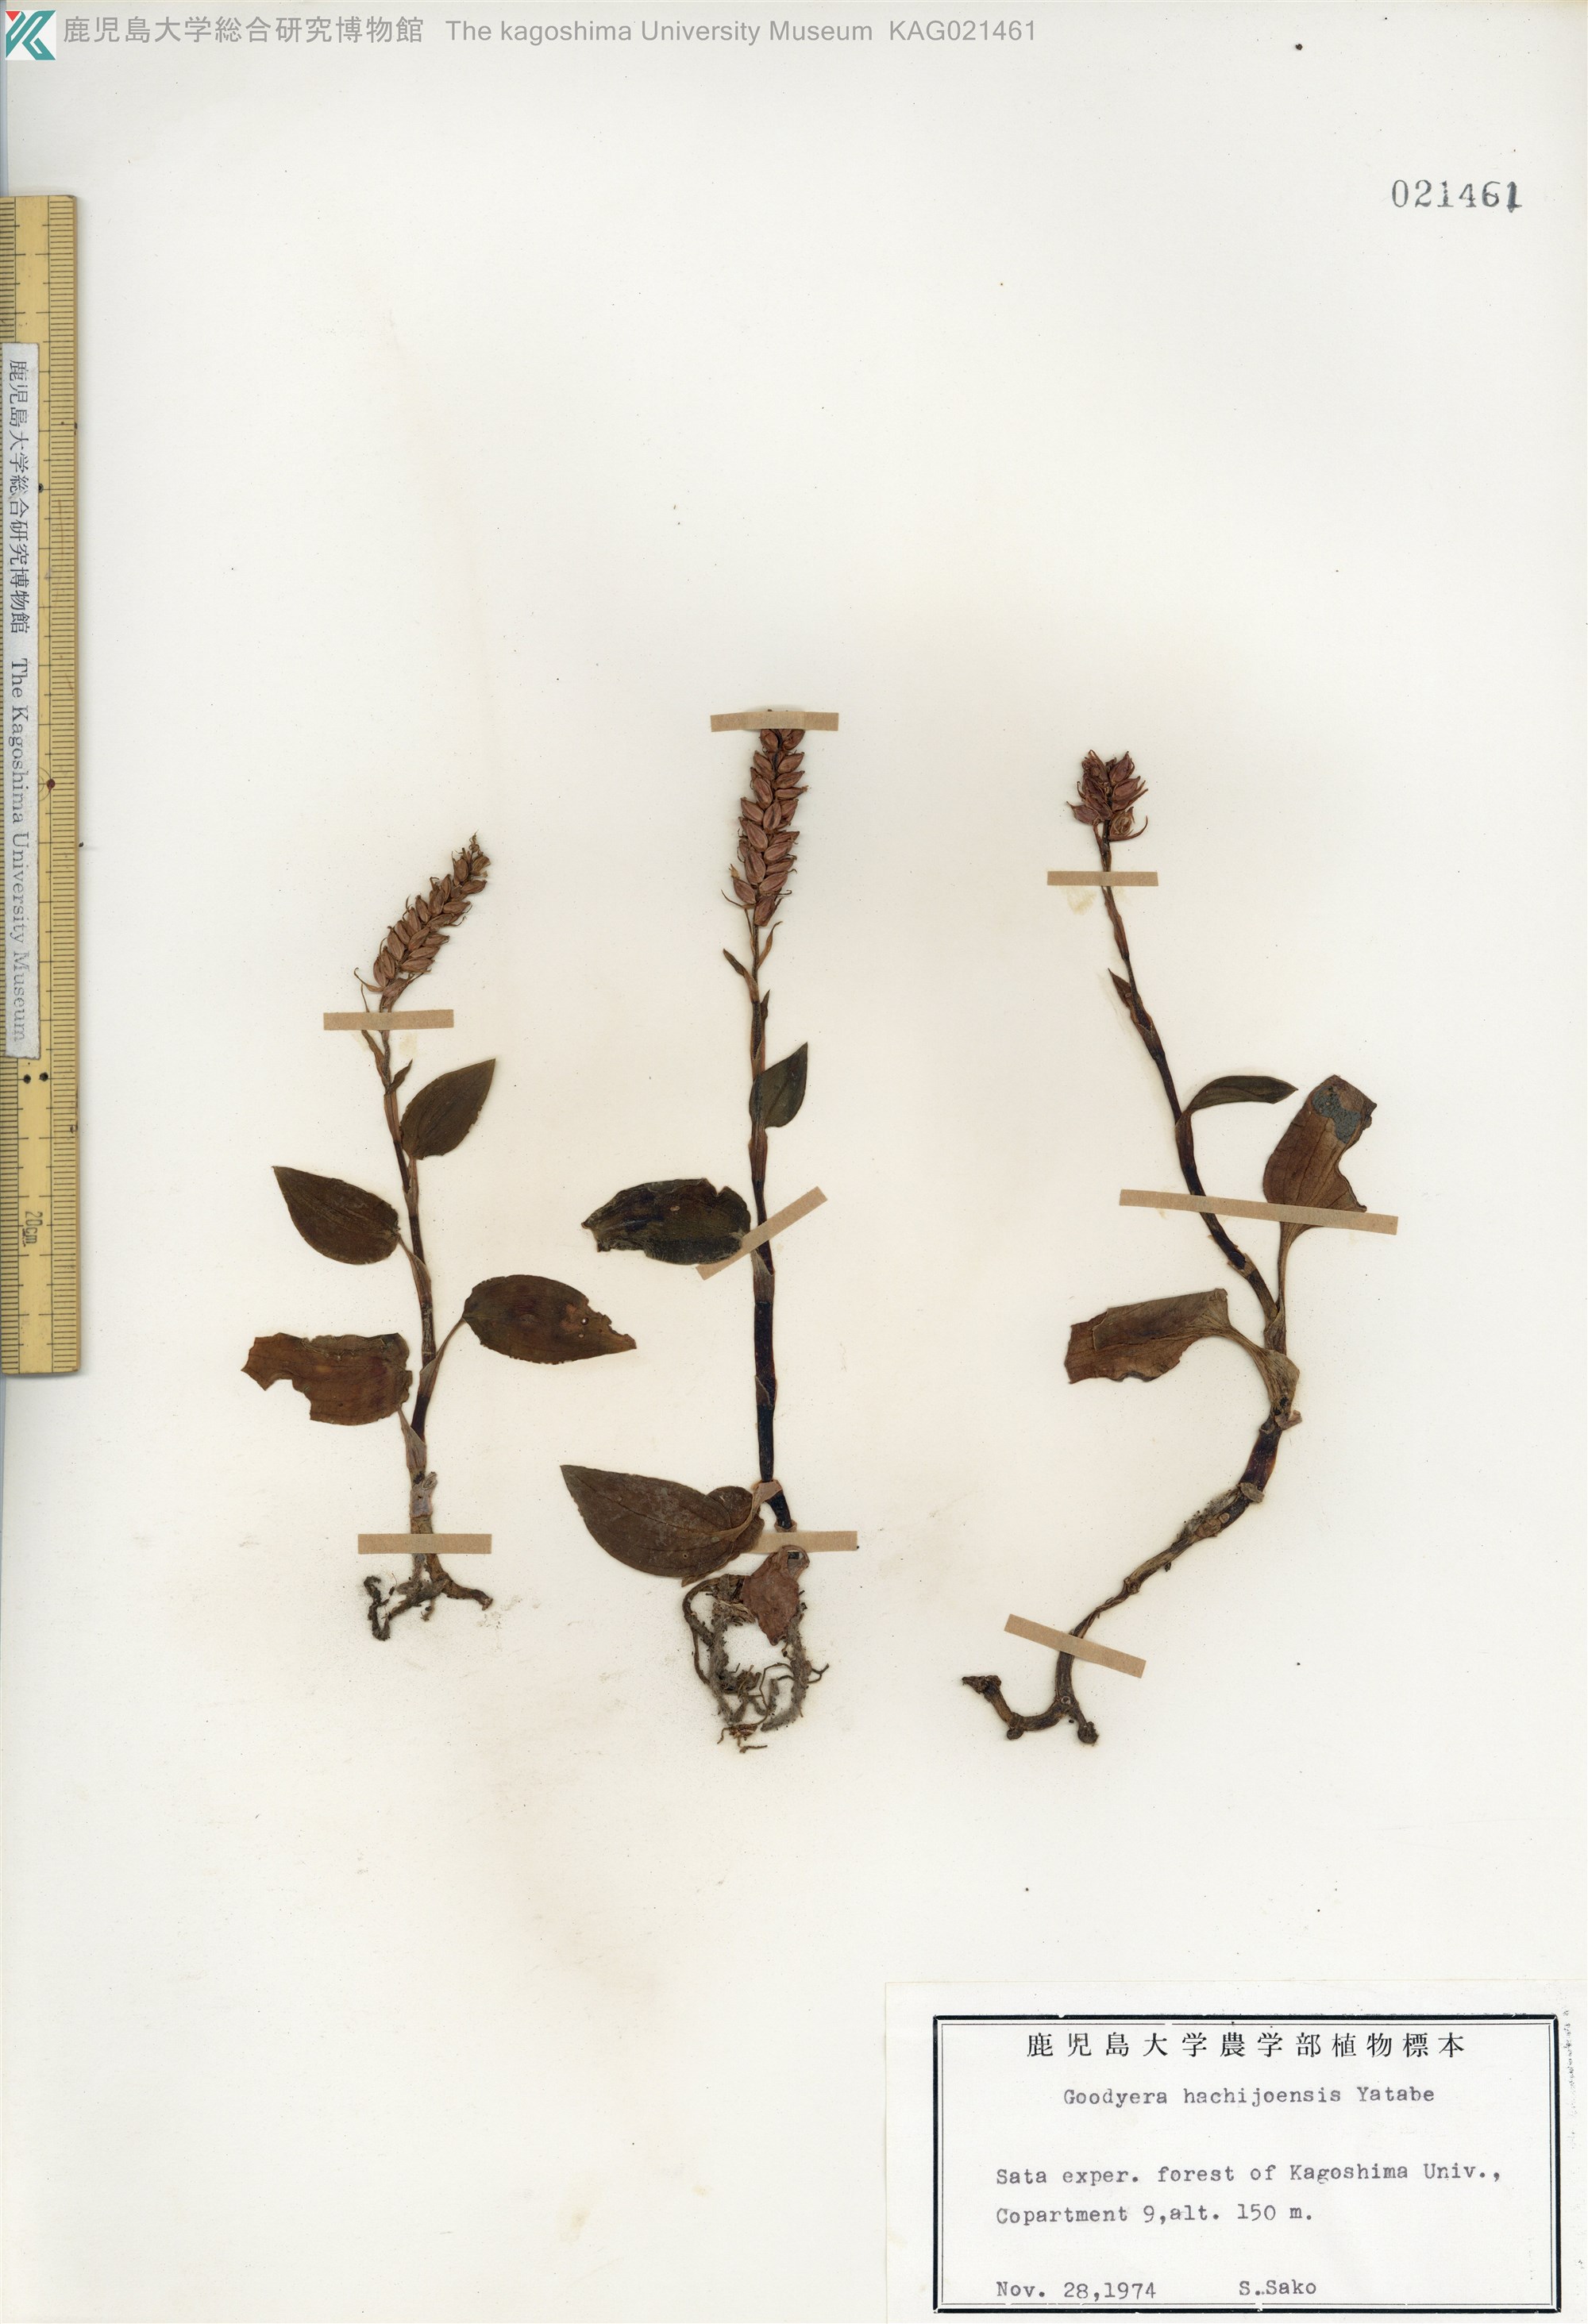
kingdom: Plantae
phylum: Tracheophyta
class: Liliopsida
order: Asparagales
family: Orchidaceae
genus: Goodyera
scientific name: Goodyera hachijoensis
